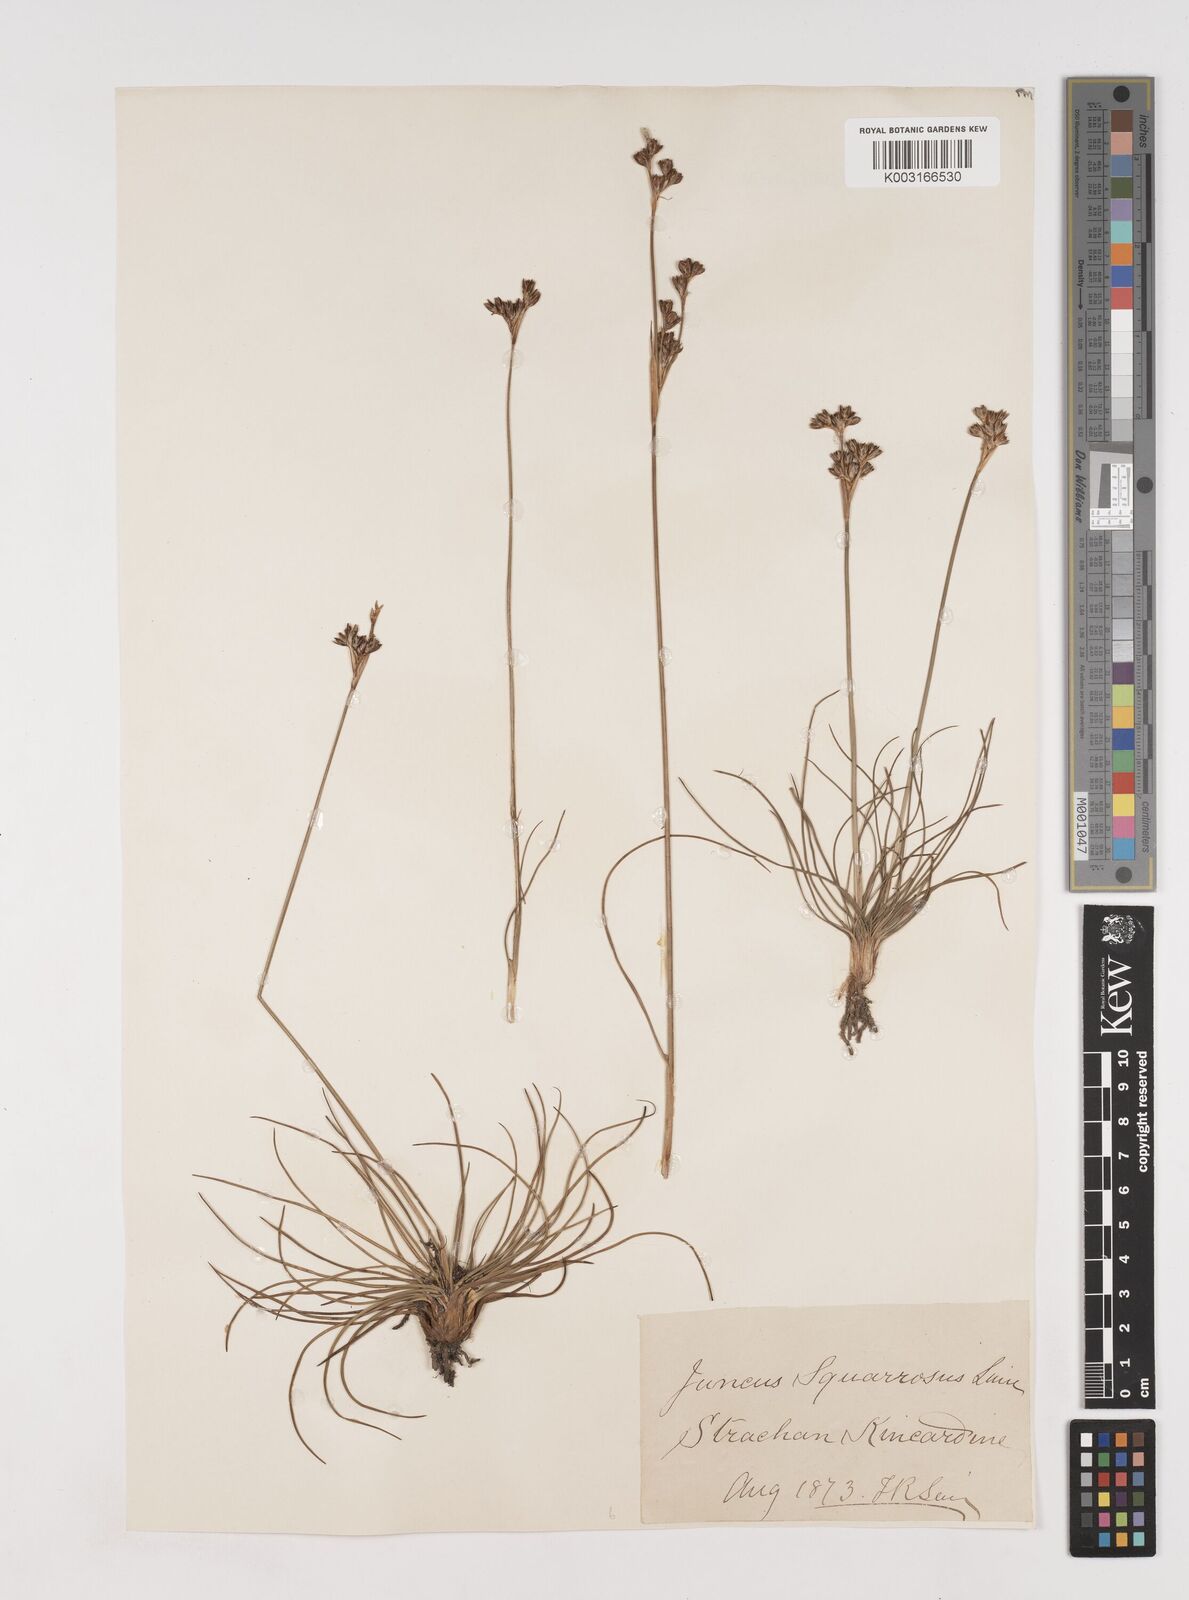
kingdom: Plantae
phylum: Tracheophyta
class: Liliopsida
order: Poales
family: Juncaceae
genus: Juncus
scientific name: Juncus squarrosus
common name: Heath rush
